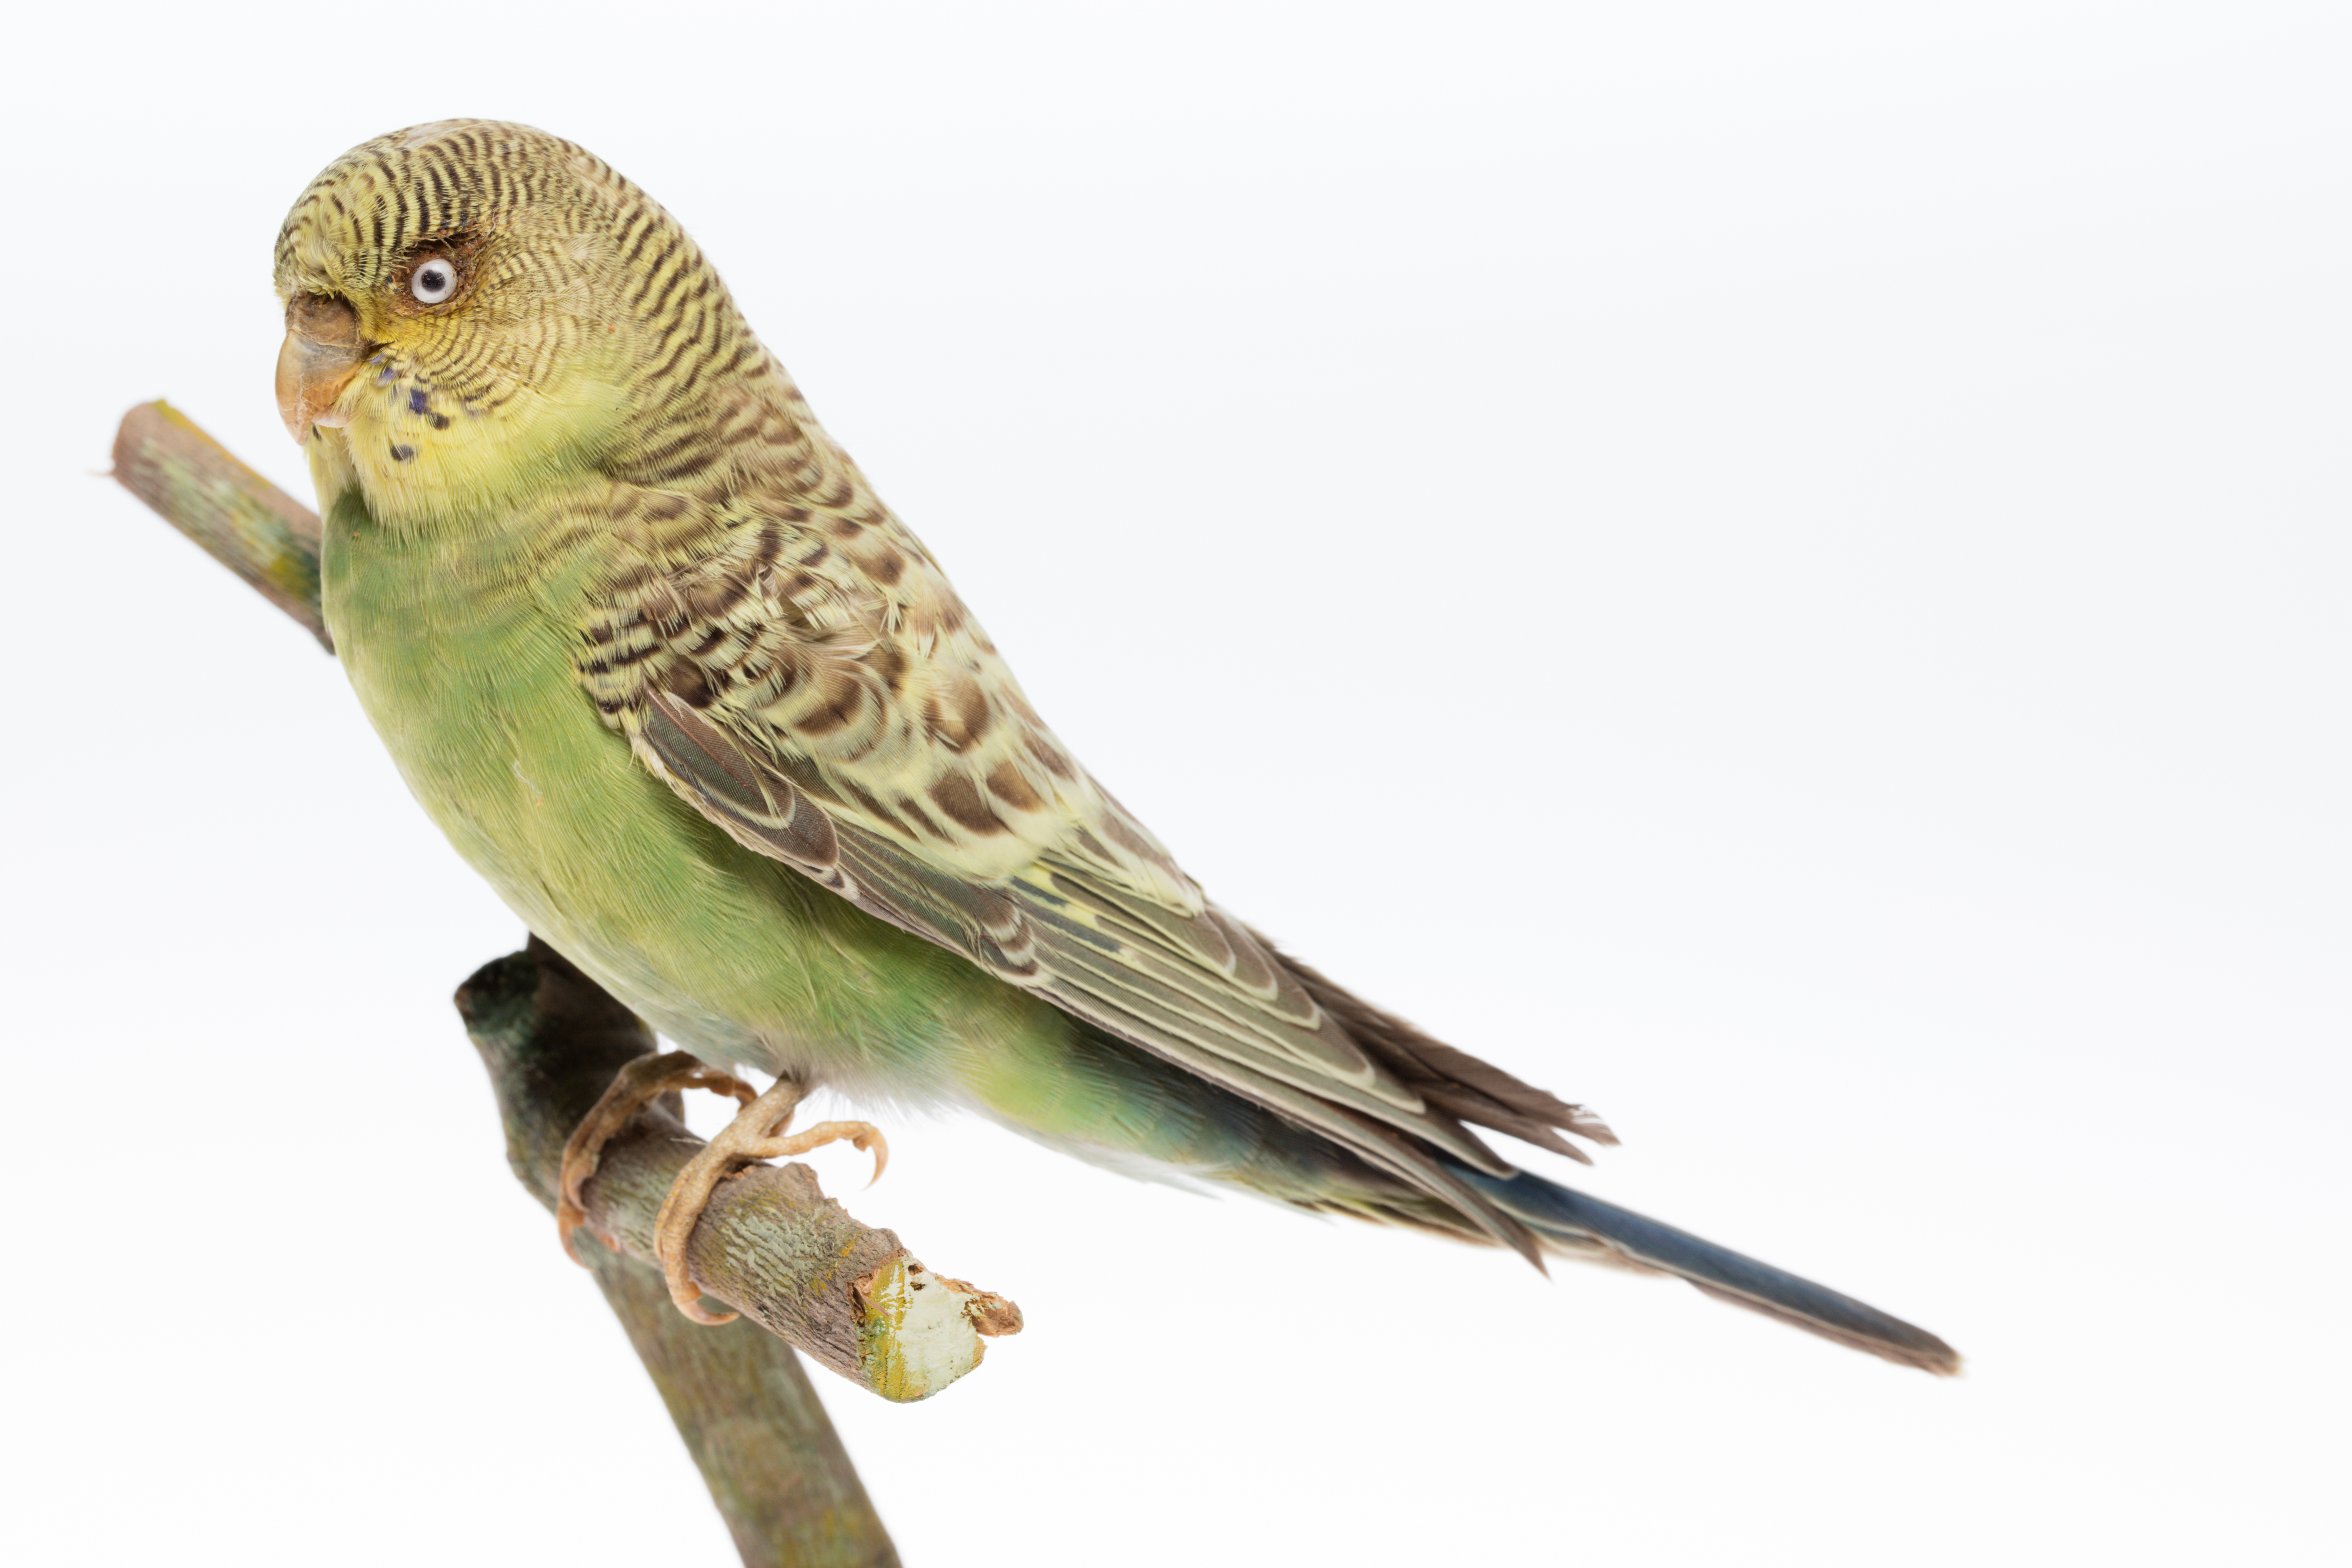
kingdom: Animalia
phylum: Chordata
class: Aves
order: Psittaciformes
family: Psittacidae
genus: Melopsittacus
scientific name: Melopsittacus undulatus
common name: Budgerigar
